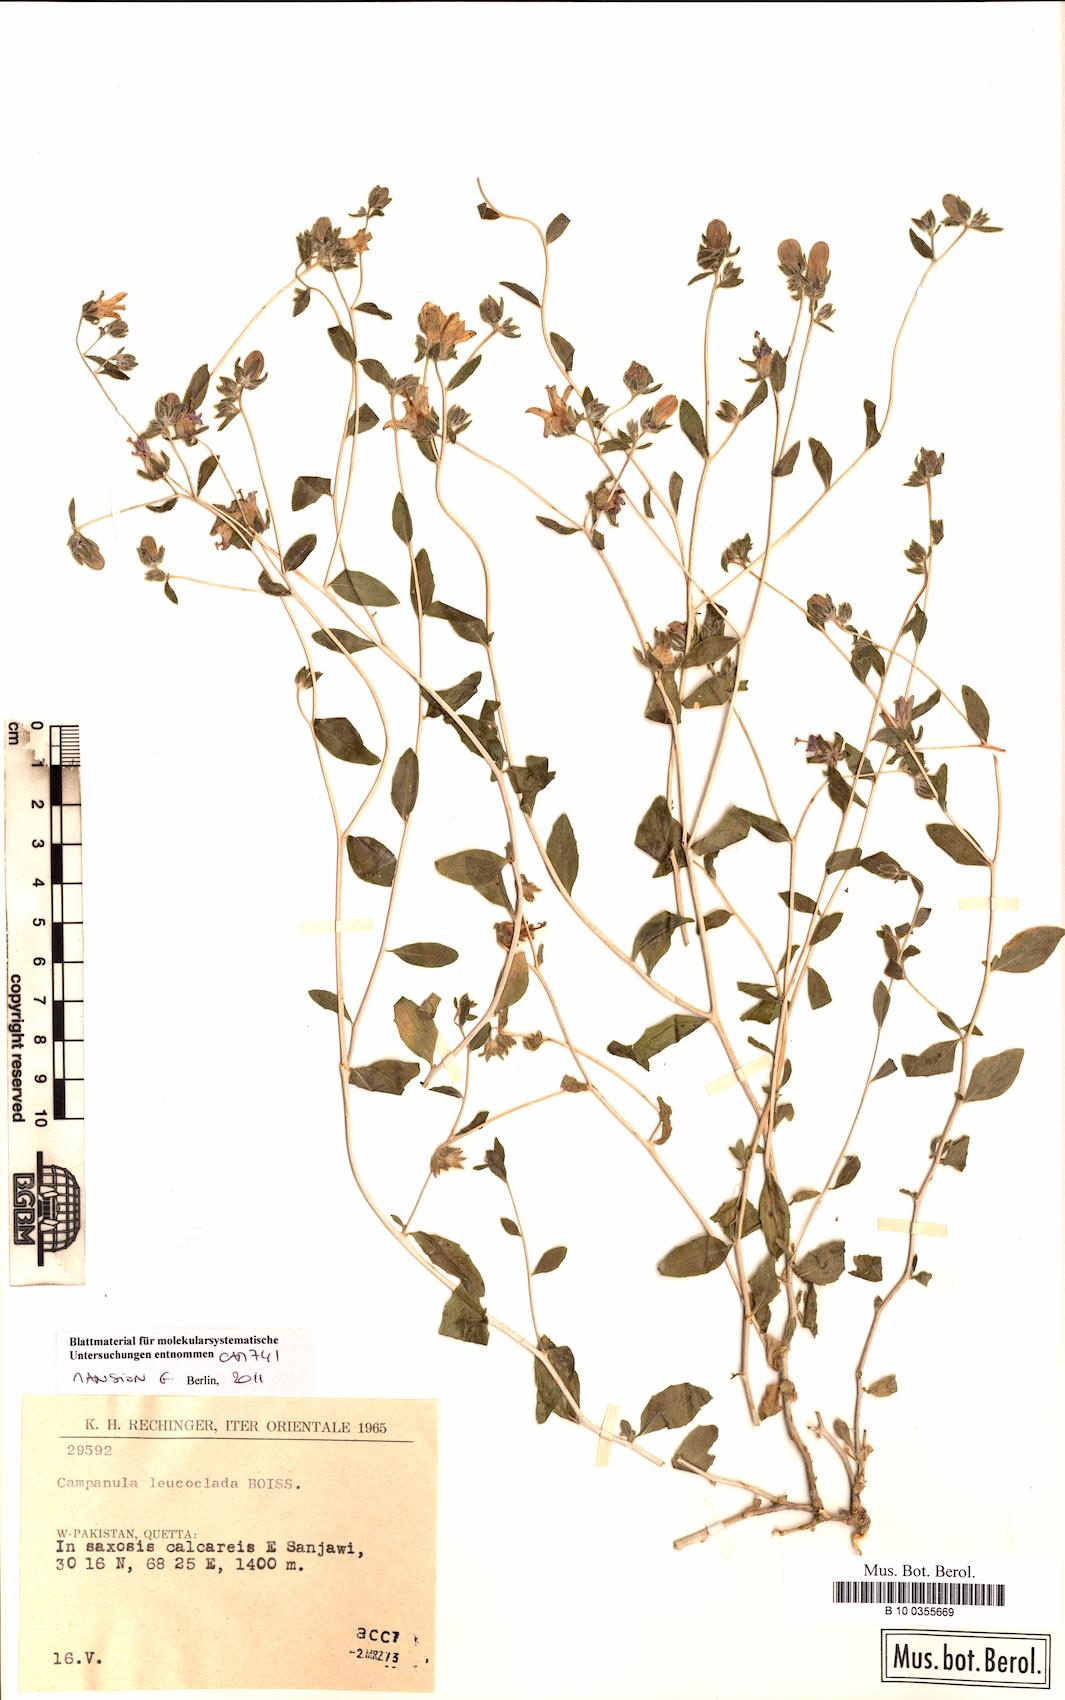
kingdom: Plantae
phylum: Tracheophyta
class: Magnoliopsida
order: Asterales
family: Campanulaceae
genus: Campanula
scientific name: Campanula leucoclada
